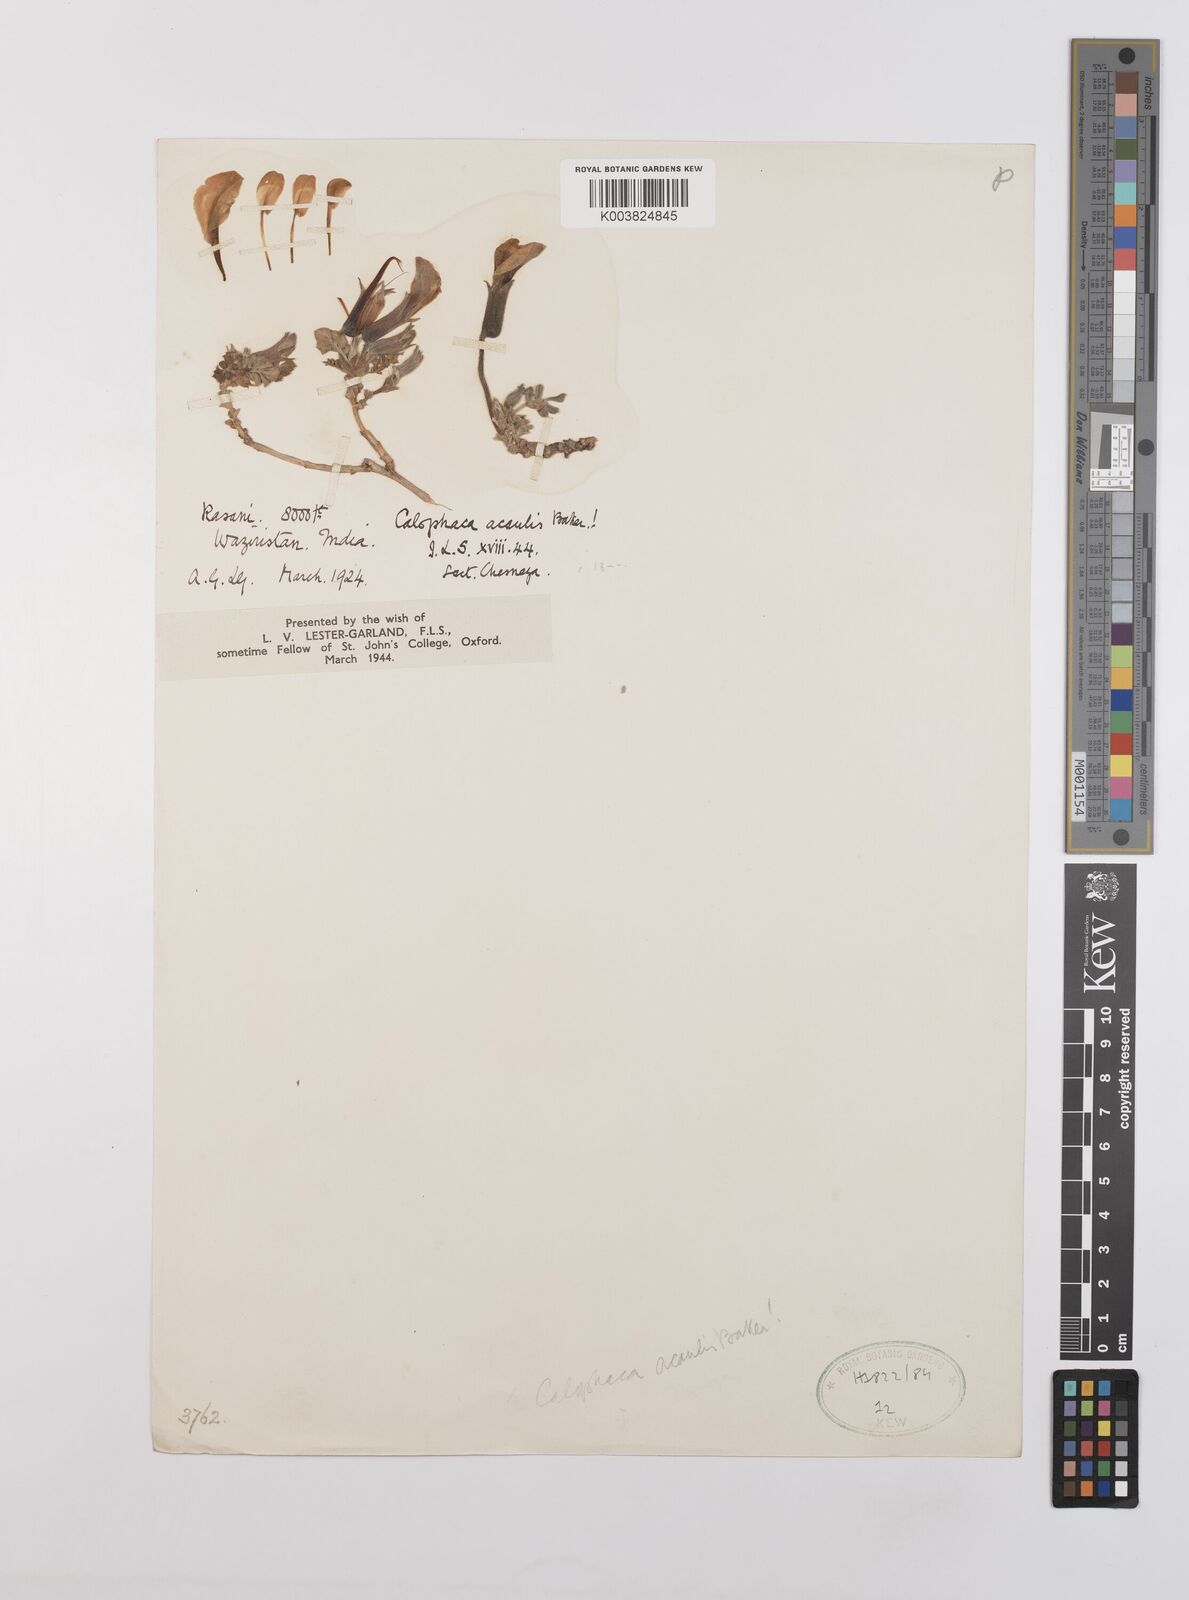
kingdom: Plantae
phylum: Tracheophyta
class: Magnoliopsida
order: Fabales
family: Fabaceae
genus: Chesneya
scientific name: Chesneya acaulis
